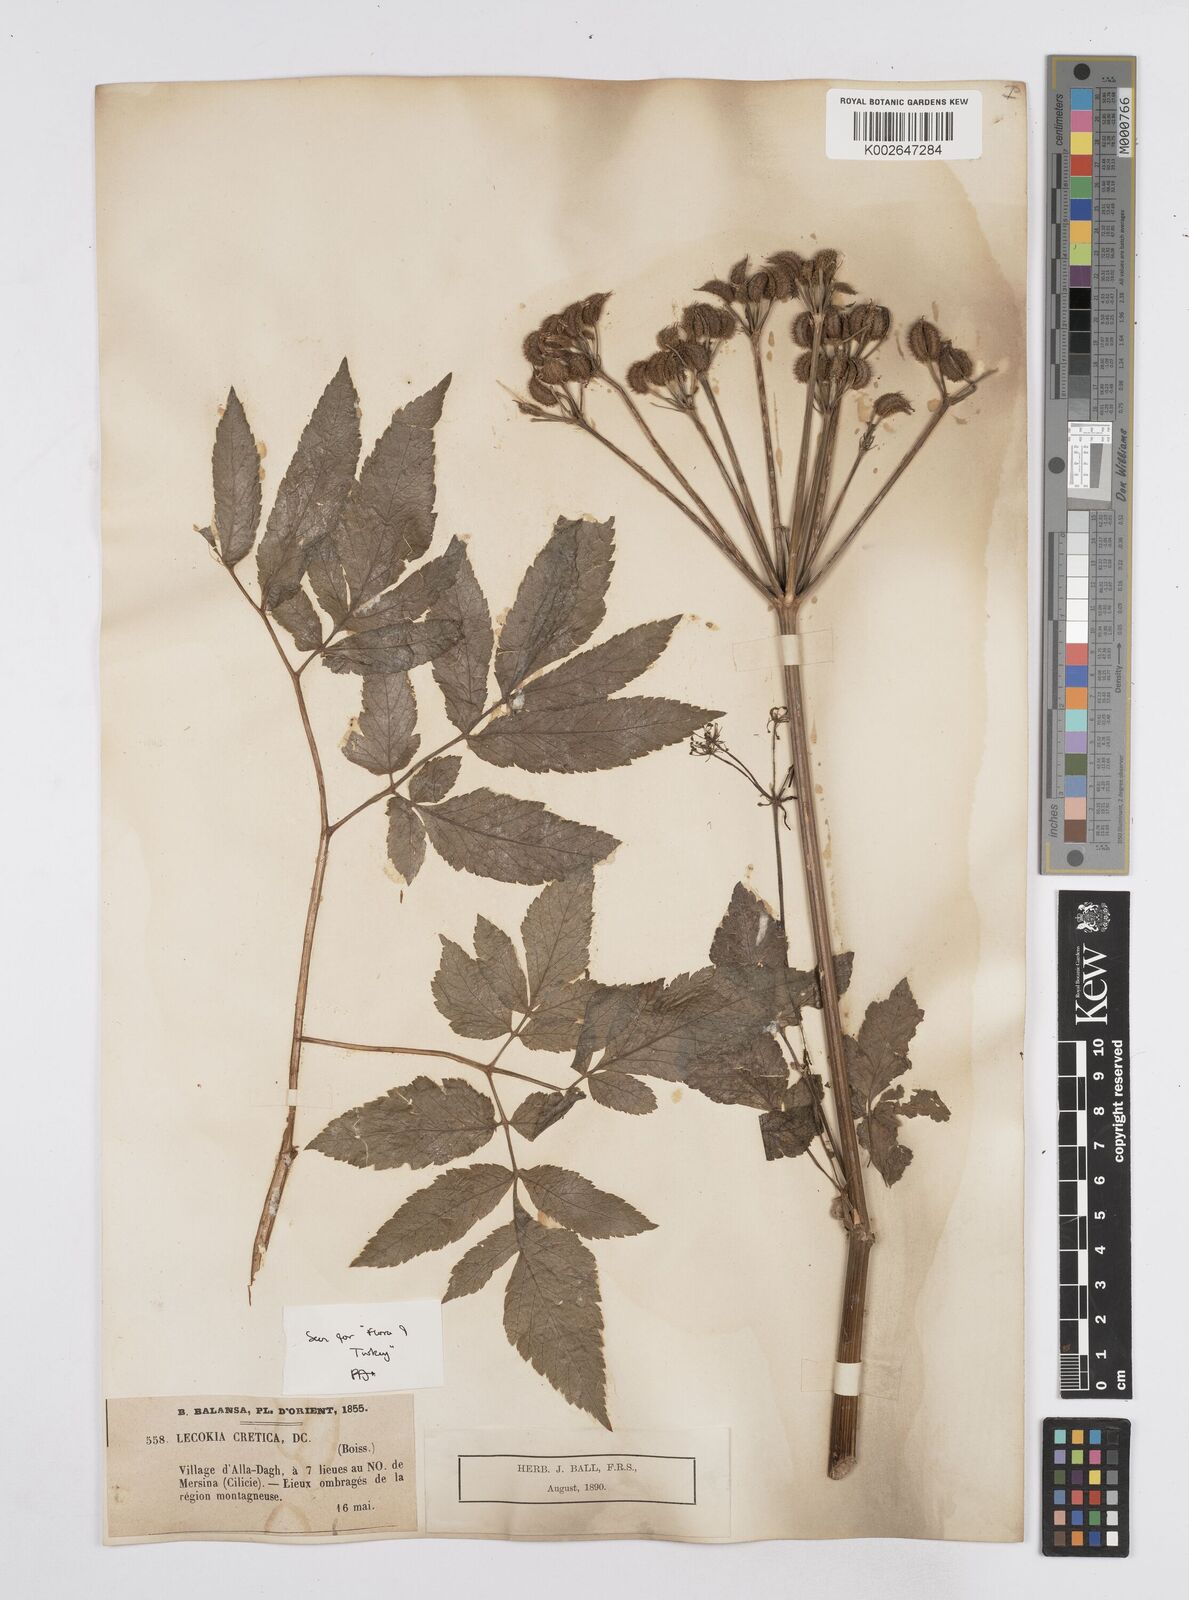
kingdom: Plantae
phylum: Tracheophyta
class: Magnoliopsida
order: Apiales
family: Apiaceae
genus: Lecokia
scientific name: Lecokia cretica
